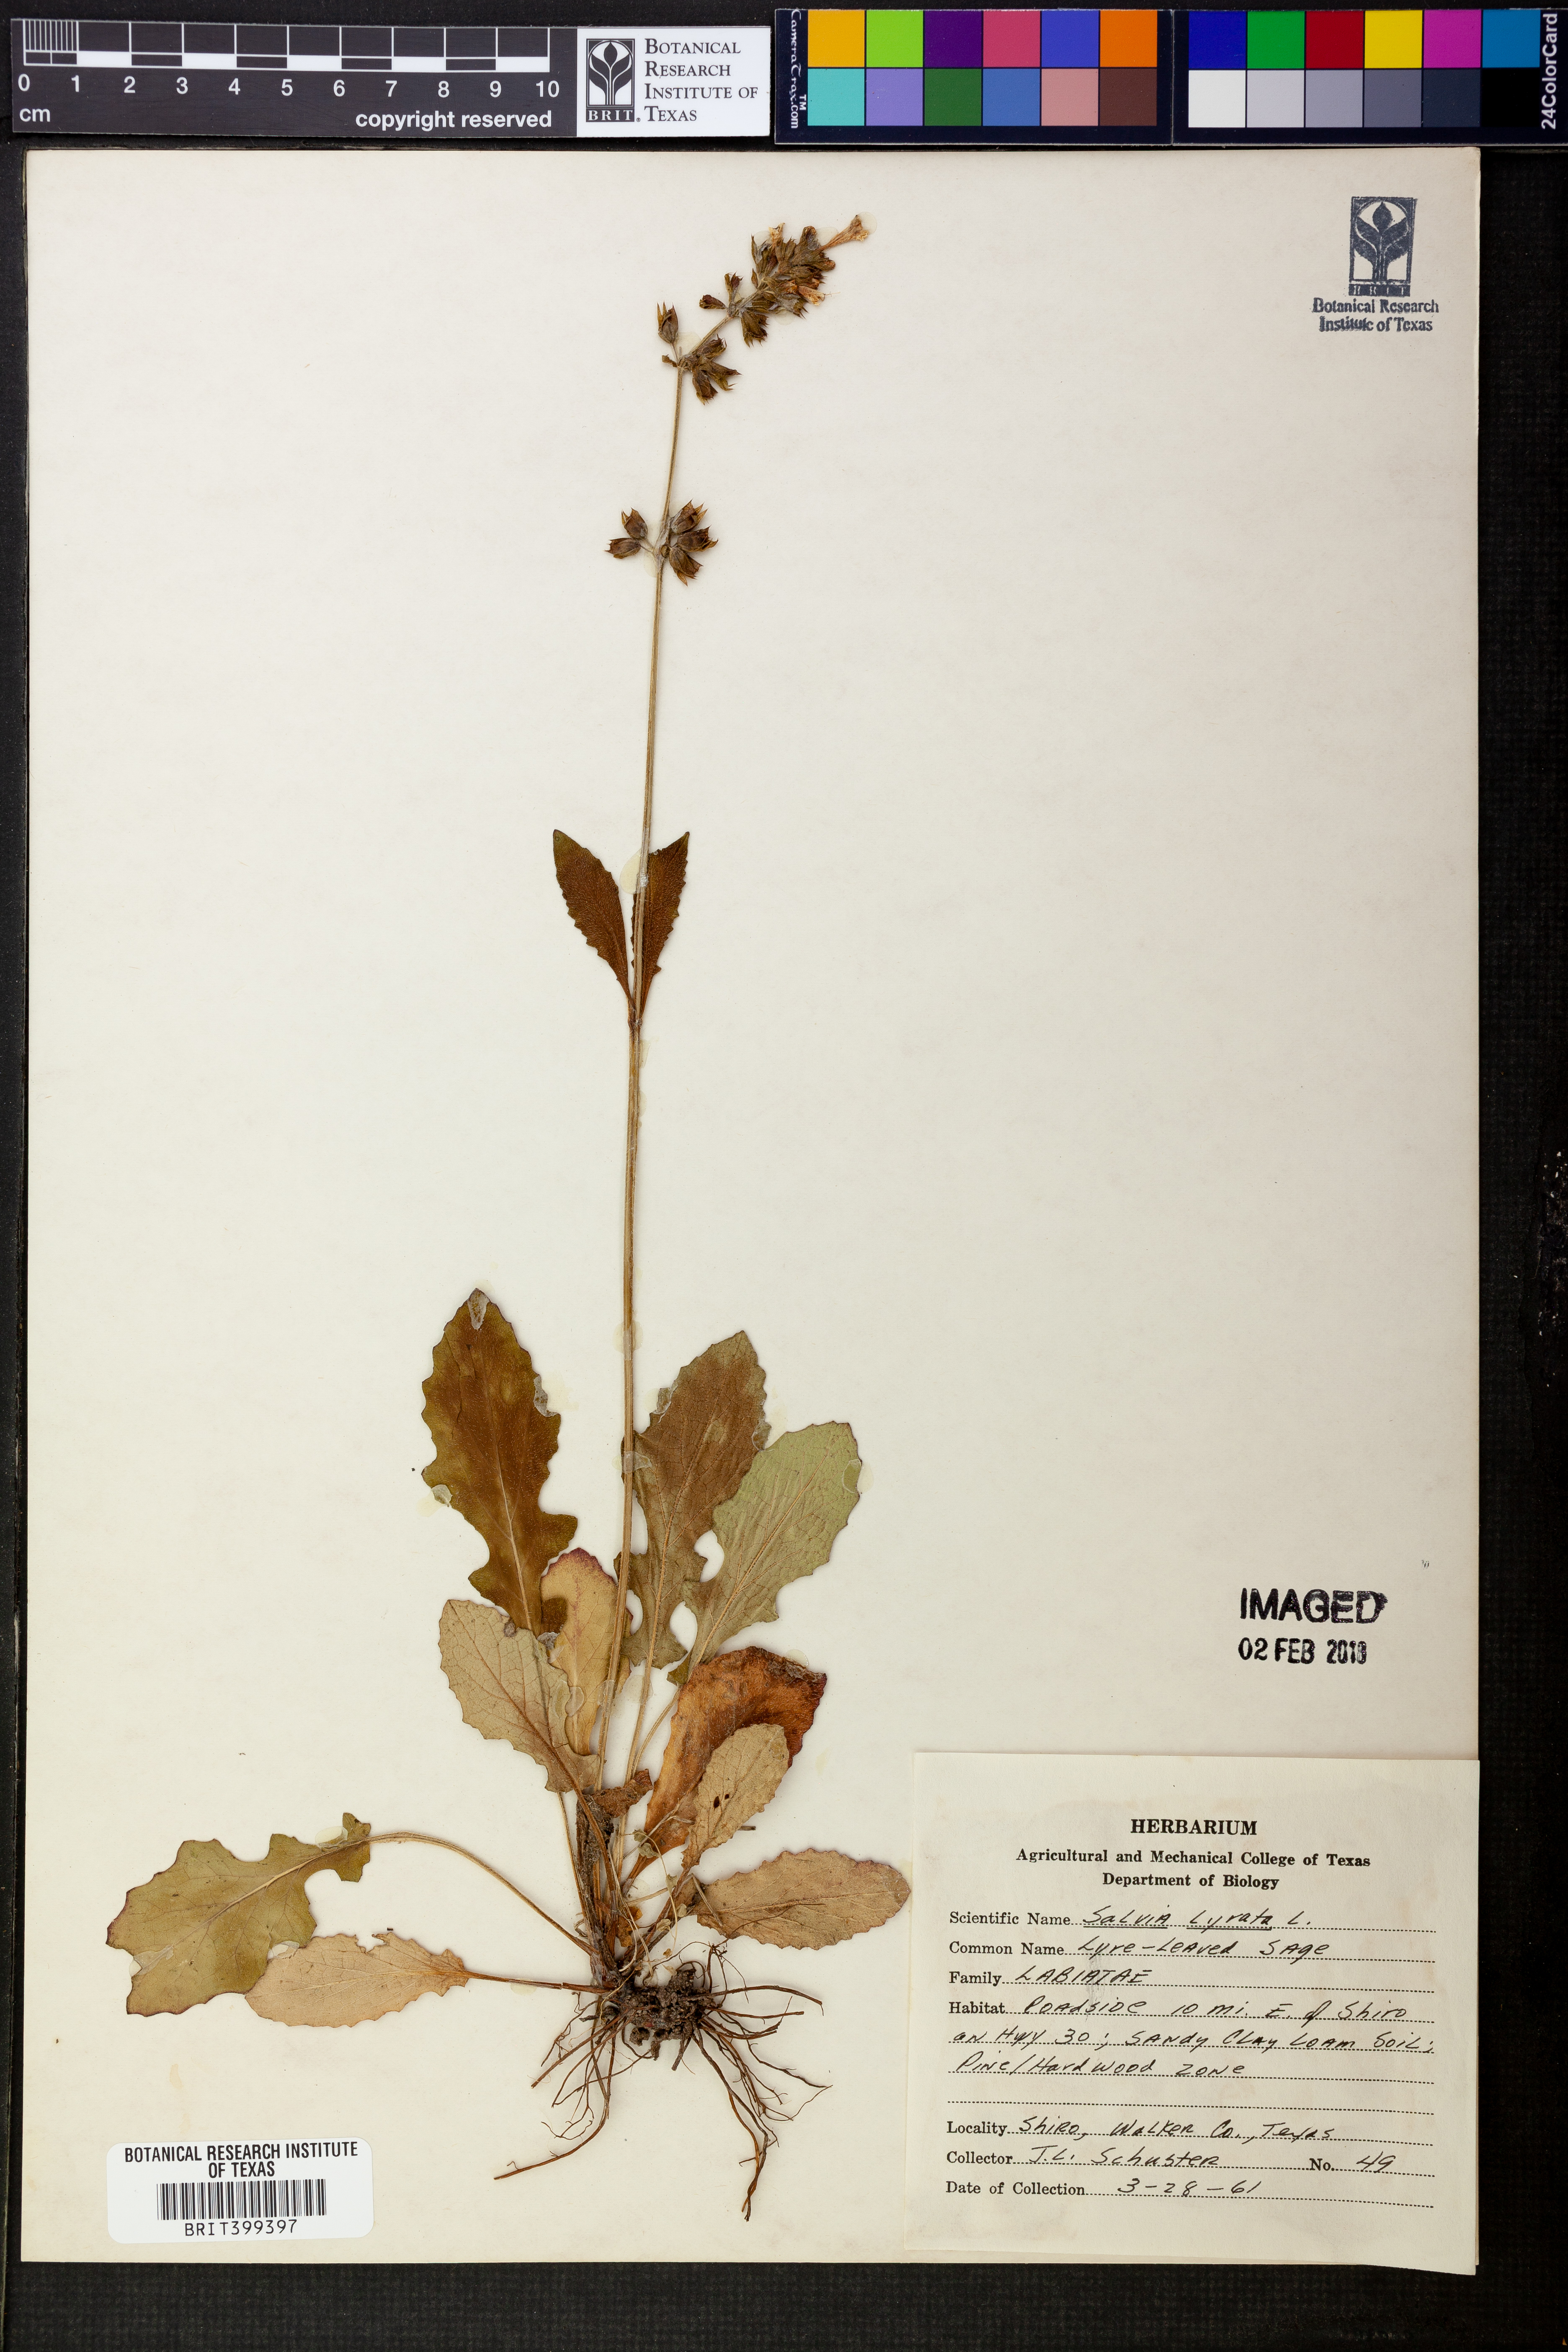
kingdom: Plantae
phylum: Tracheophyta
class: Magnoliopsida
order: Lamiales
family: Lamiaceae
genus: Salvia
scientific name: Salvia lyrata
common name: Cancerweed
